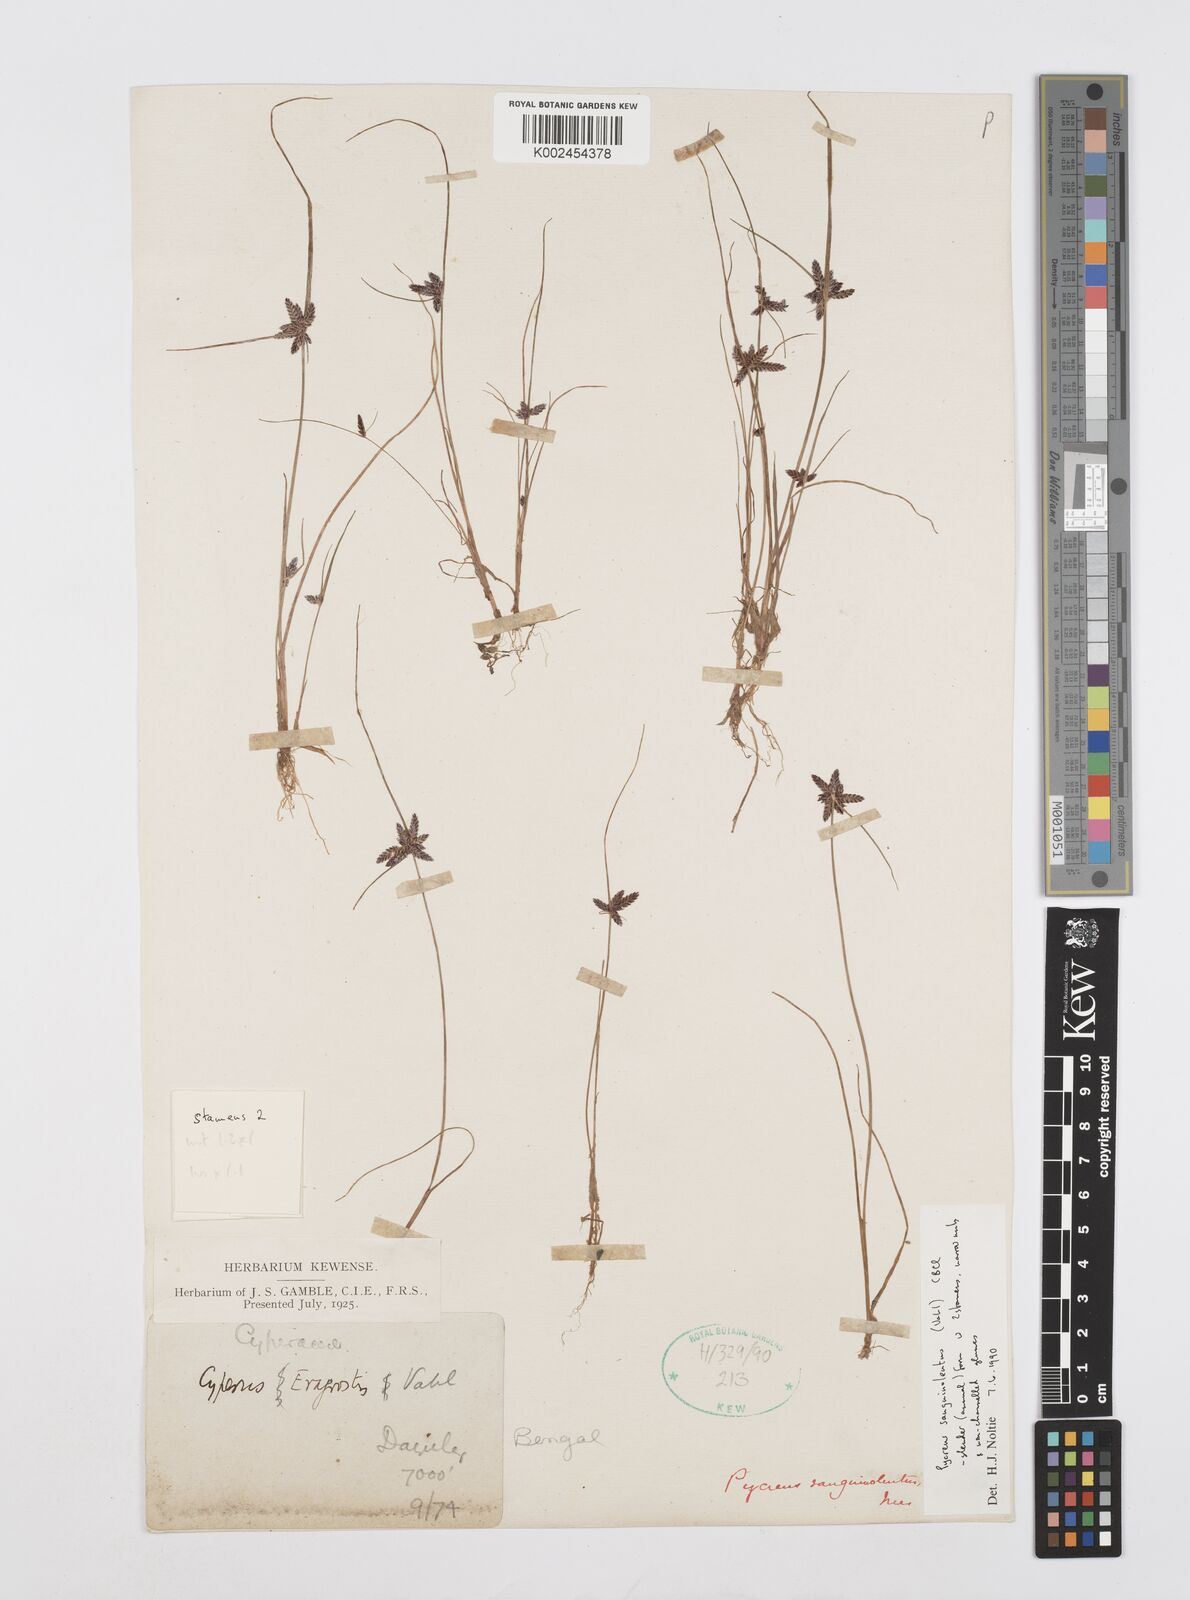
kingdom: Plantae
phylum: Tracheophyta
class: Liliopsida
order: Poales
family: Cyperaceae
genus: Cyperus
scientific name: Cyperus sanguinolentus
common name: Purpleglume flatsedge
